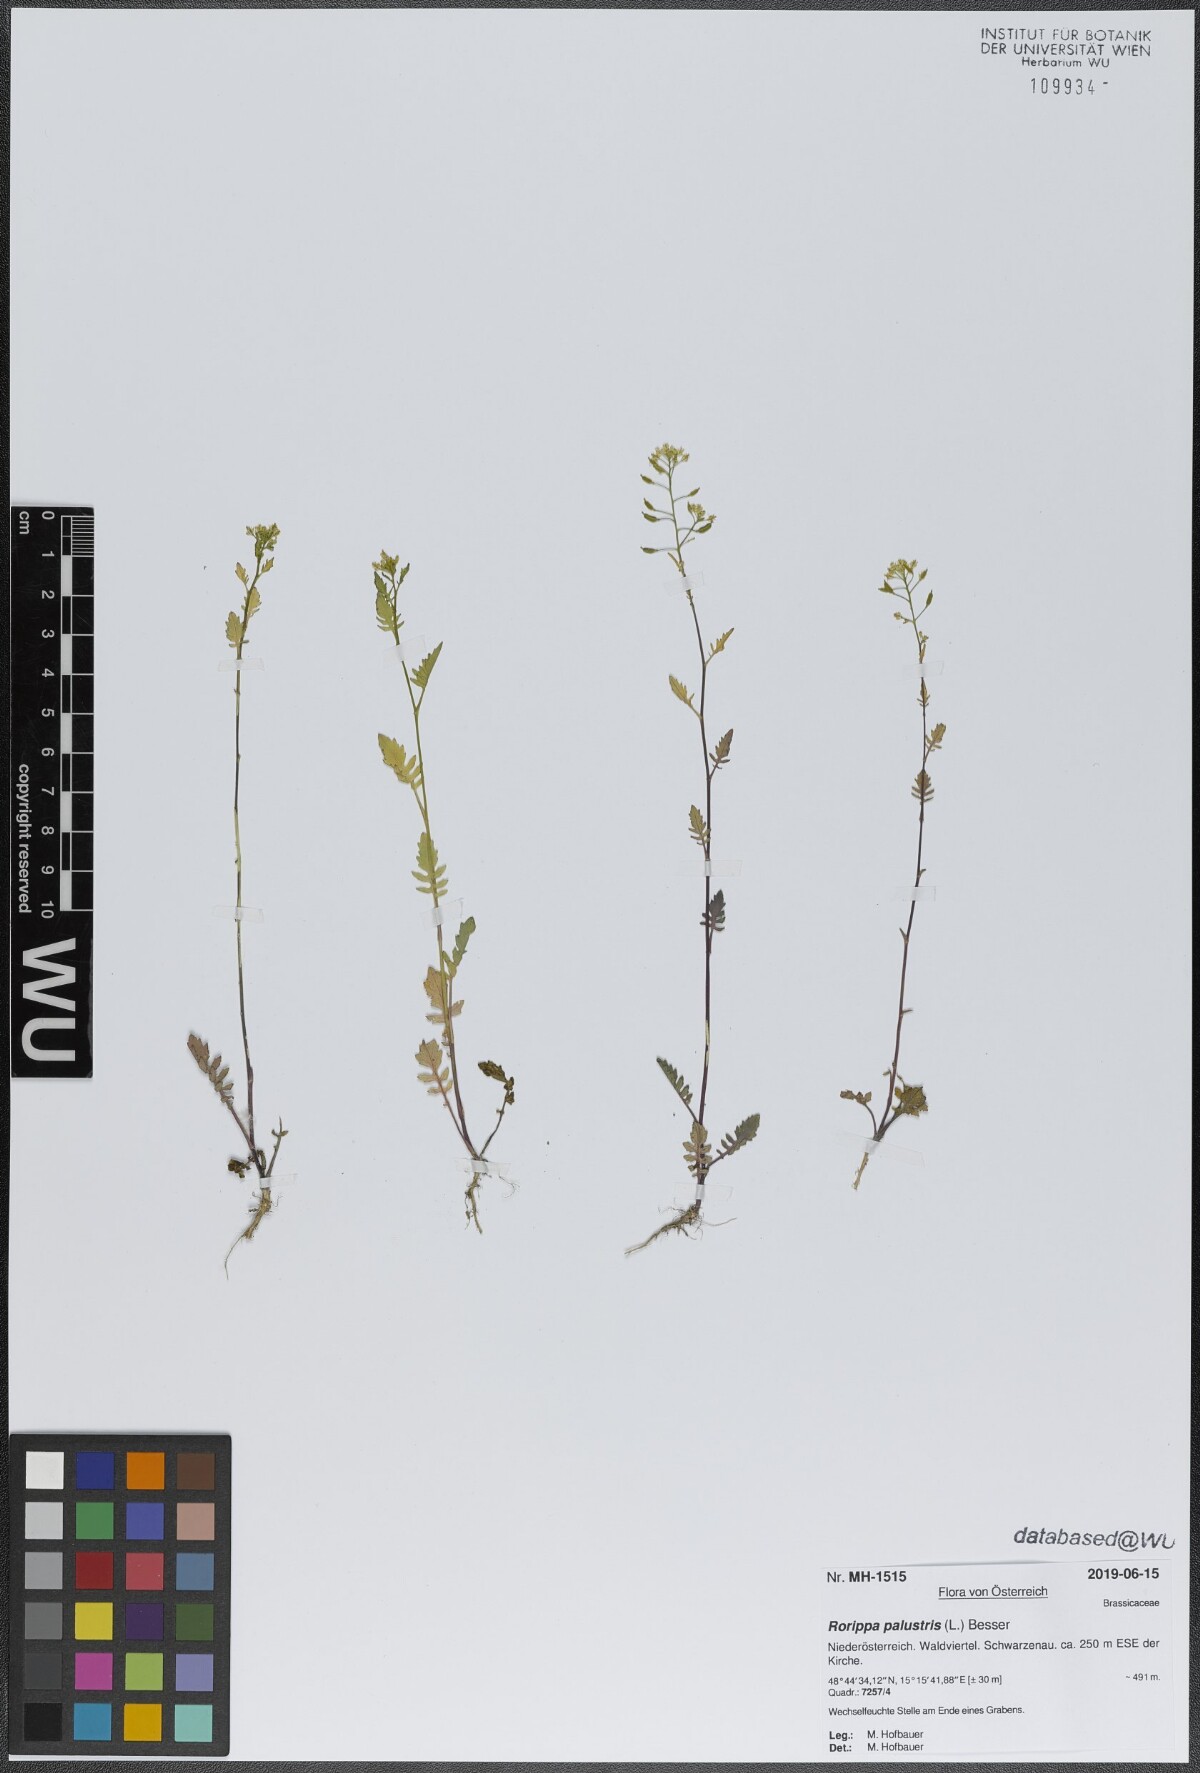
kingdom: Plantae
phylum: Tracheophyta
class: Magnoliopsida
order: Brassicales
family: Brassicaceae
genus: Rorippa
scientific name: Rorippa palustris
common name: Marsh yellow-cress
